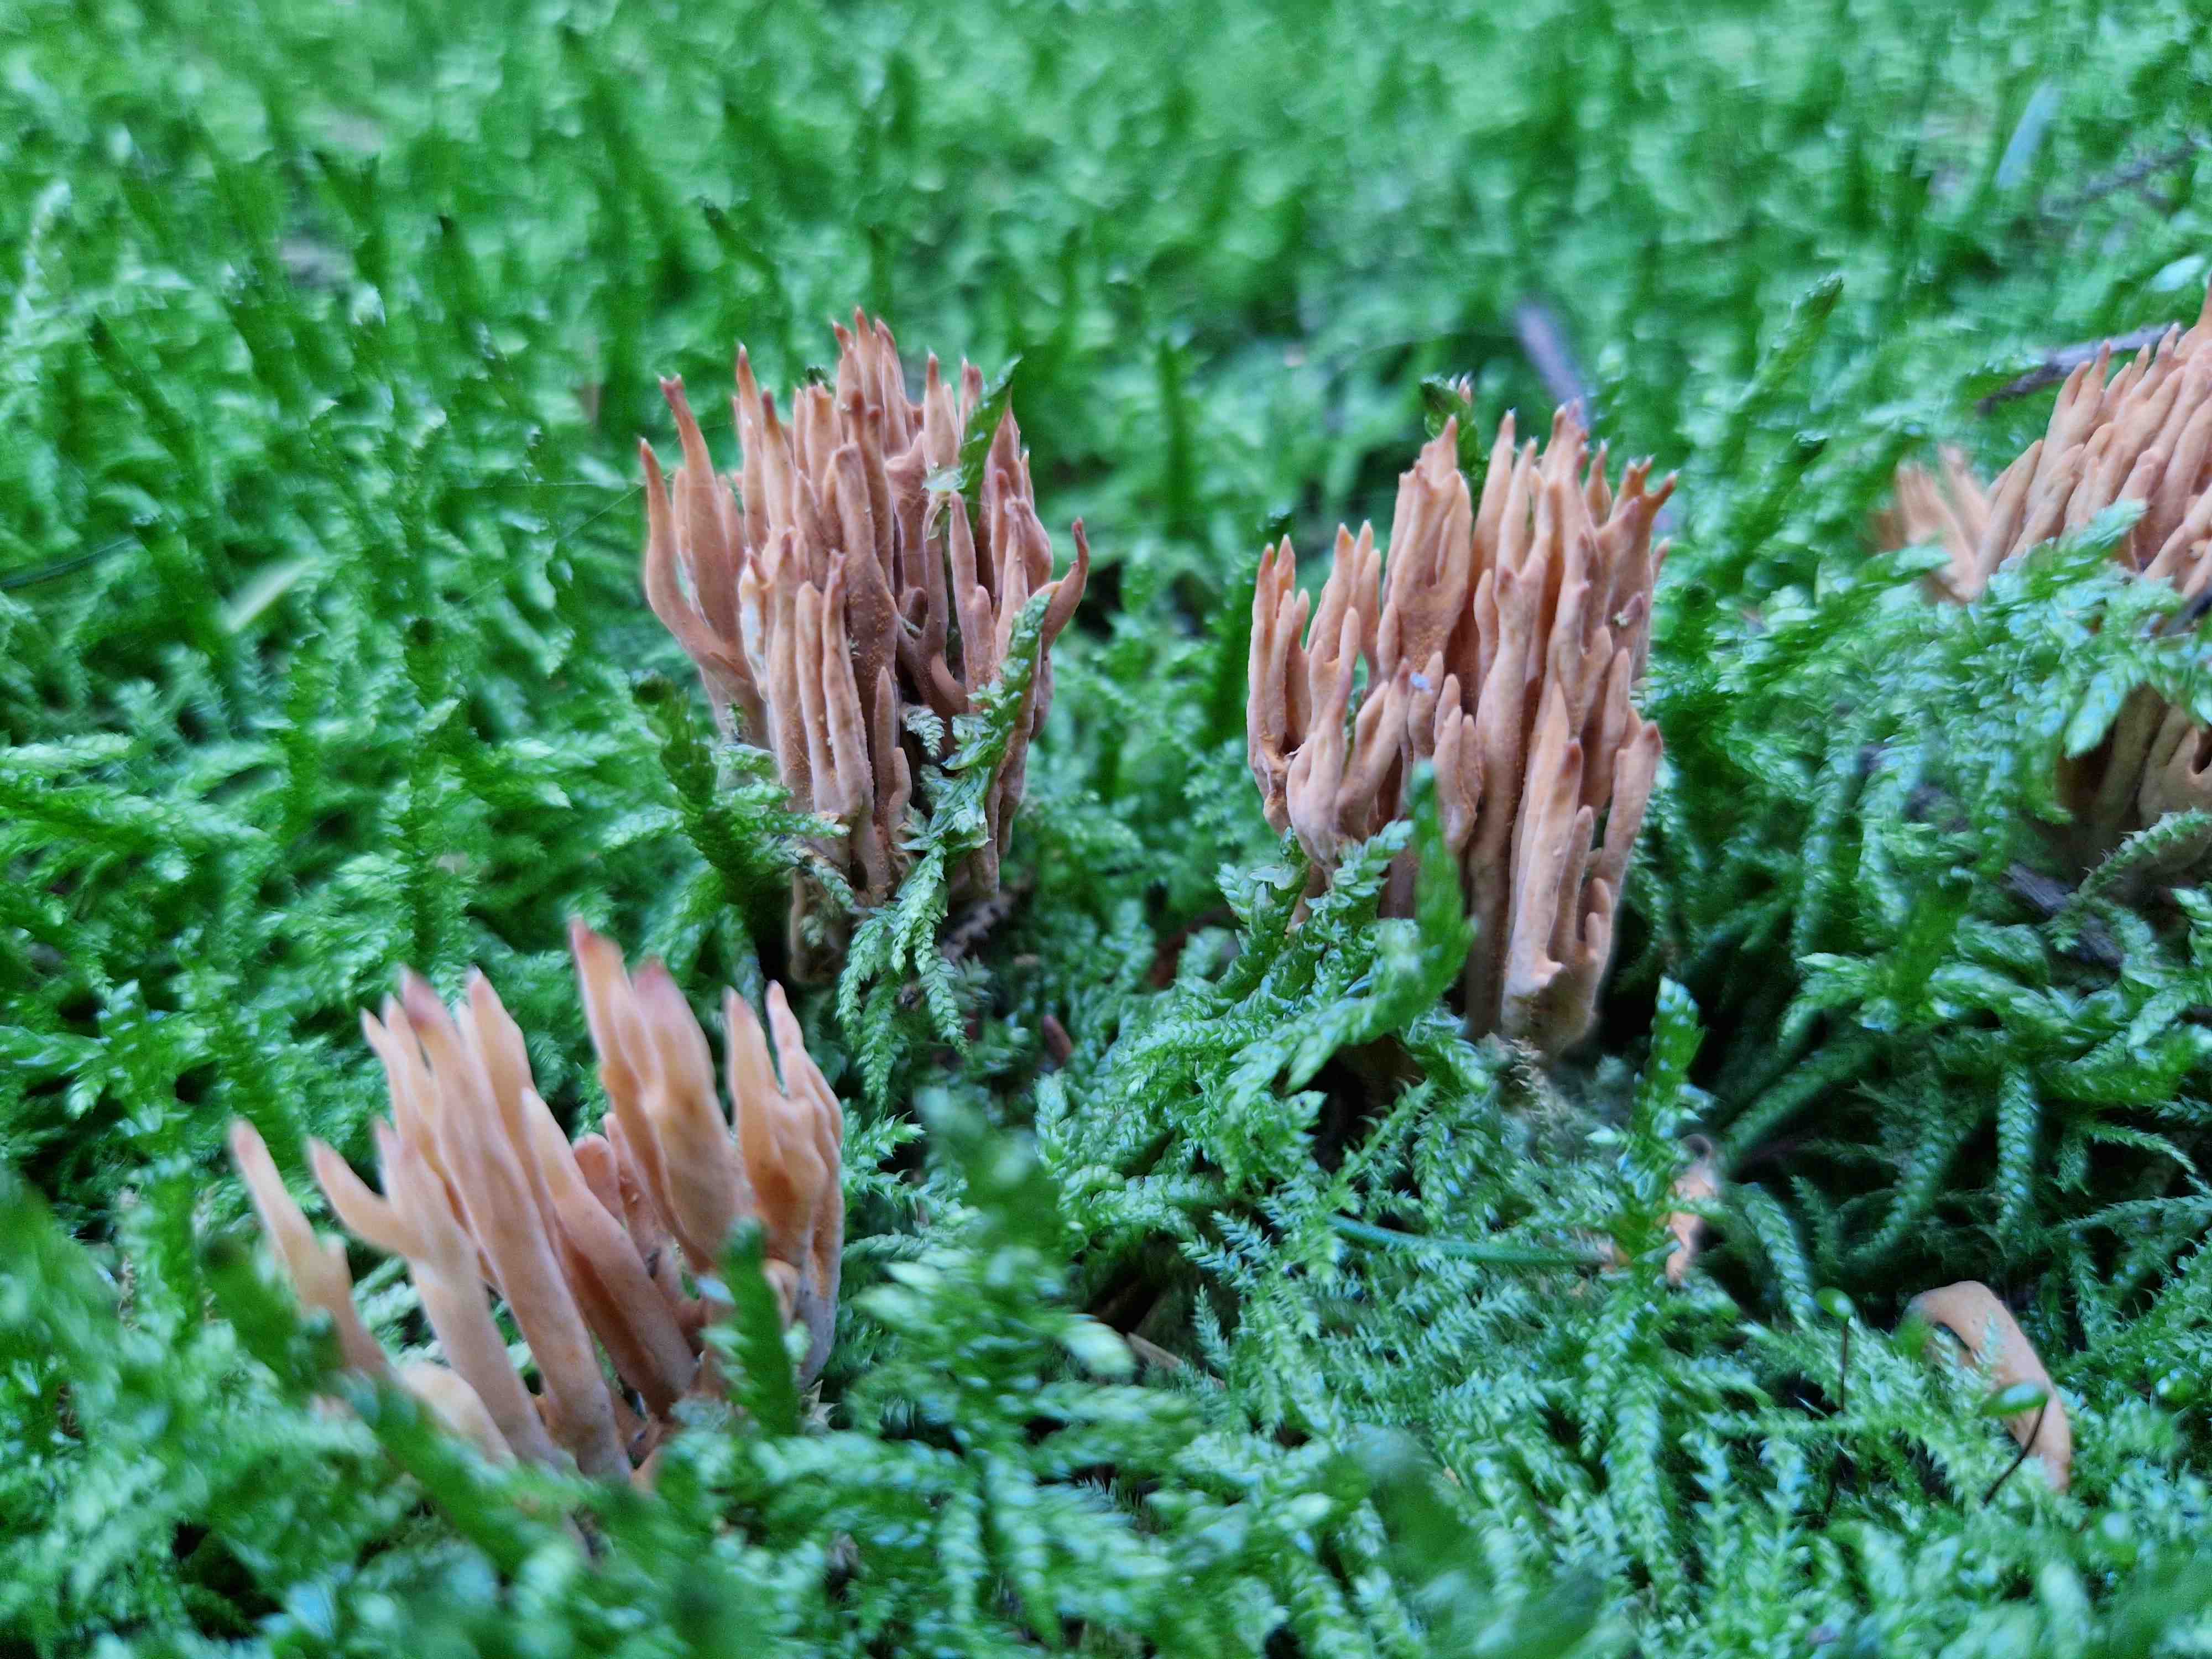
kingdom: Fungi
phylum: Basidiomycota
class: Agaricomycetes
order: Gomphales
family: Gomphaceae
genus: Phaeoclavulina
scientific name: Phaeoclavulina eumorpha
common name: gran-koralsvamp
